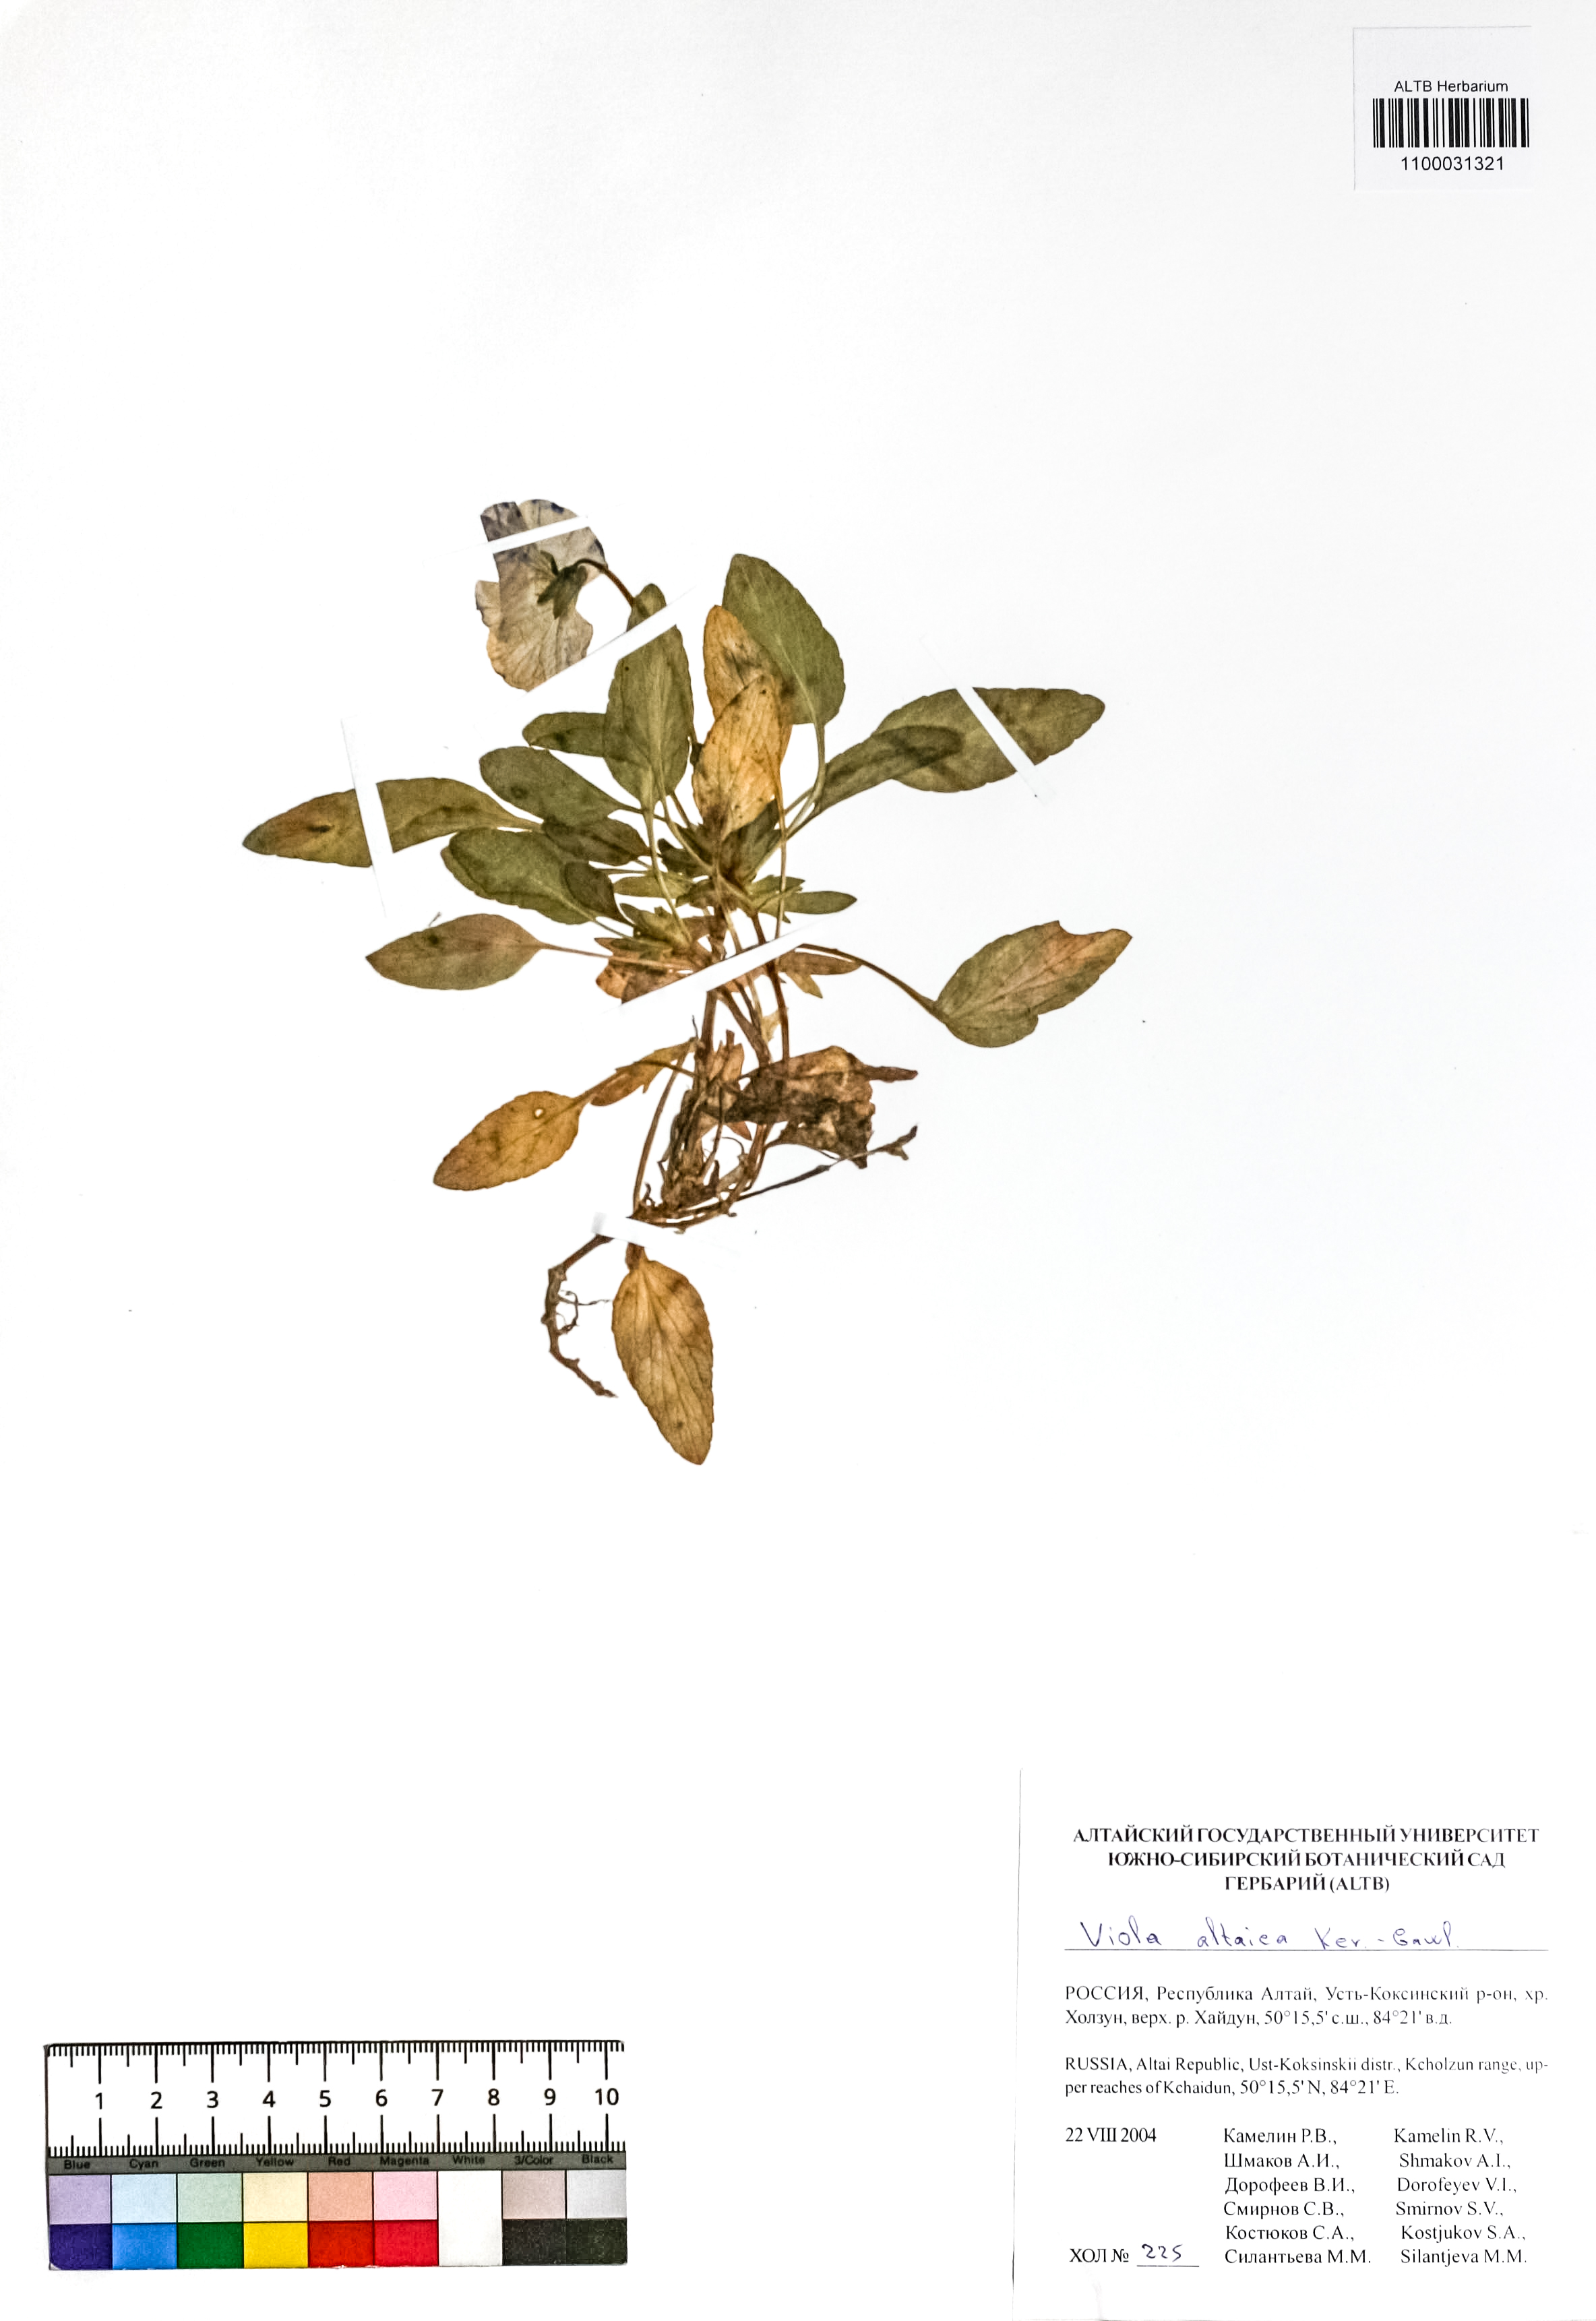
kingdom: Plantae
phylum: Tracheophyta
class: Magnoliopsida
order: Malpighiales
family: Violaceae
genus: Viola
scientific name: Viola altaica
